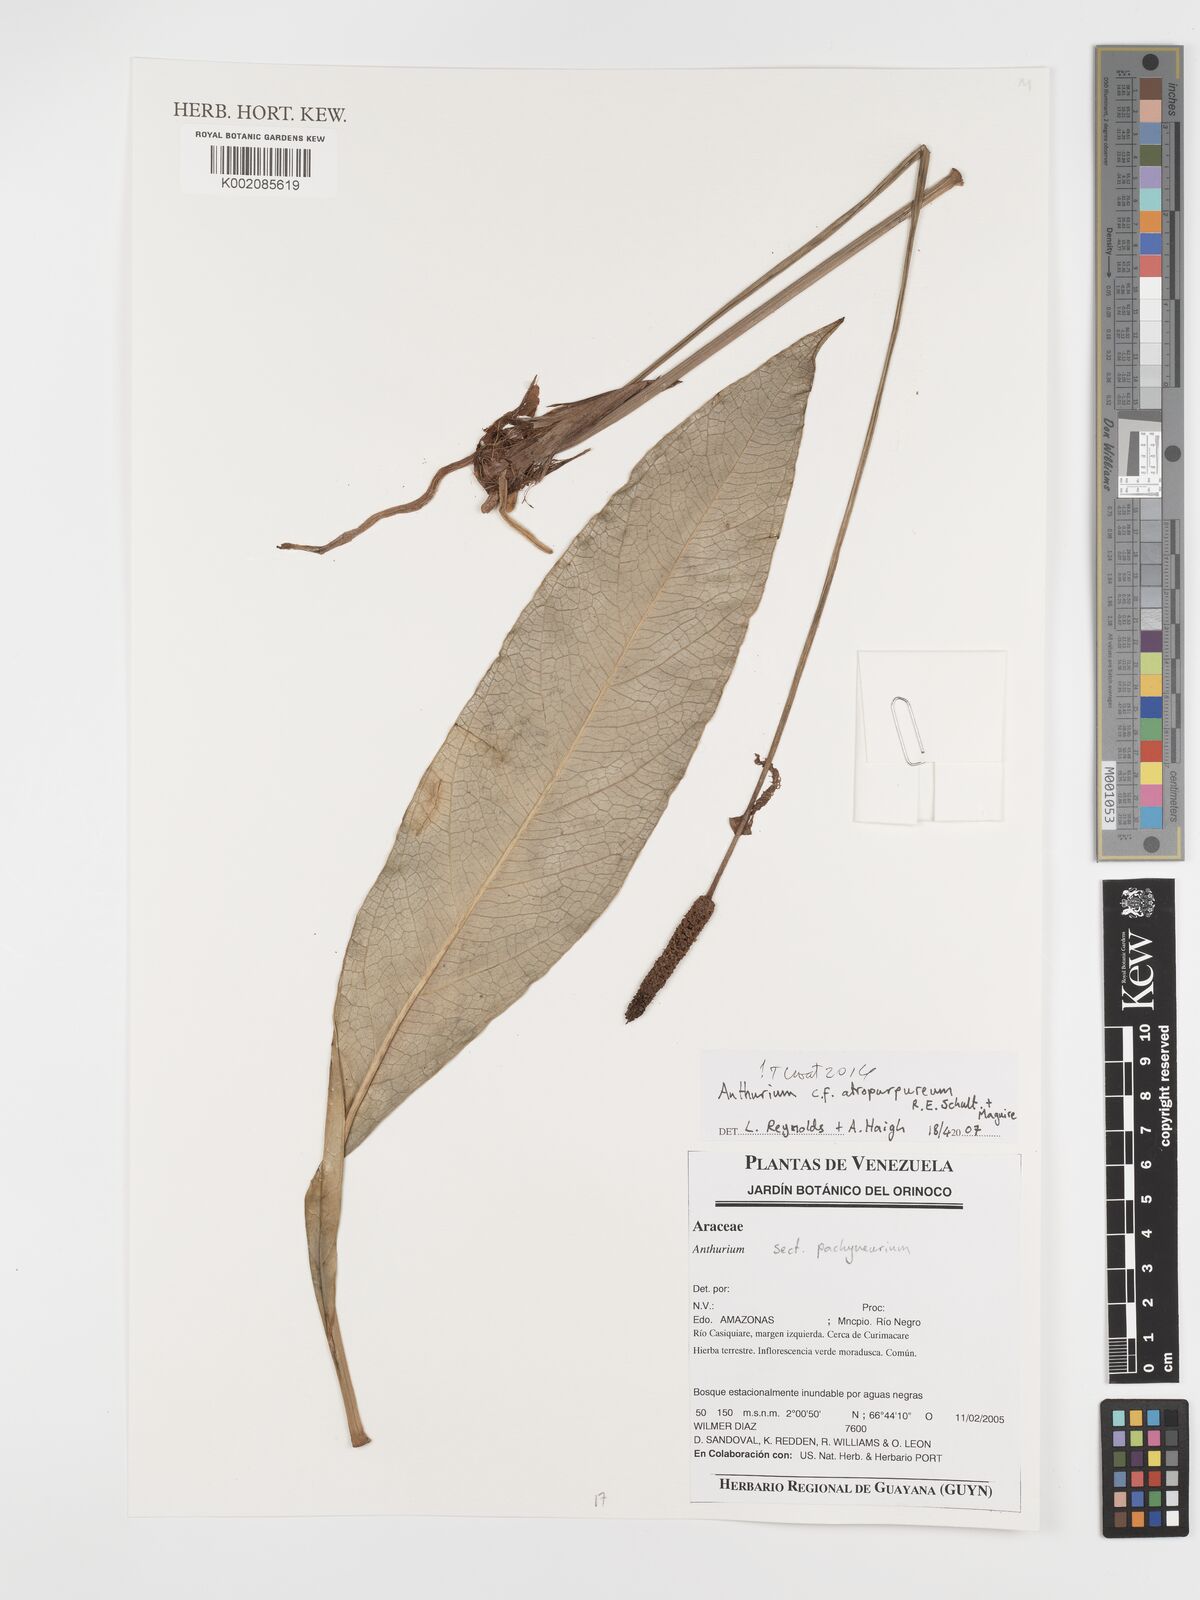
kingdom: Plantae
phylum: Tracheophyta
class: Liliopsida
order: Alismatales
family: Araceae
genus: Anthurium
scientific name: Anthurium atropurpureum
